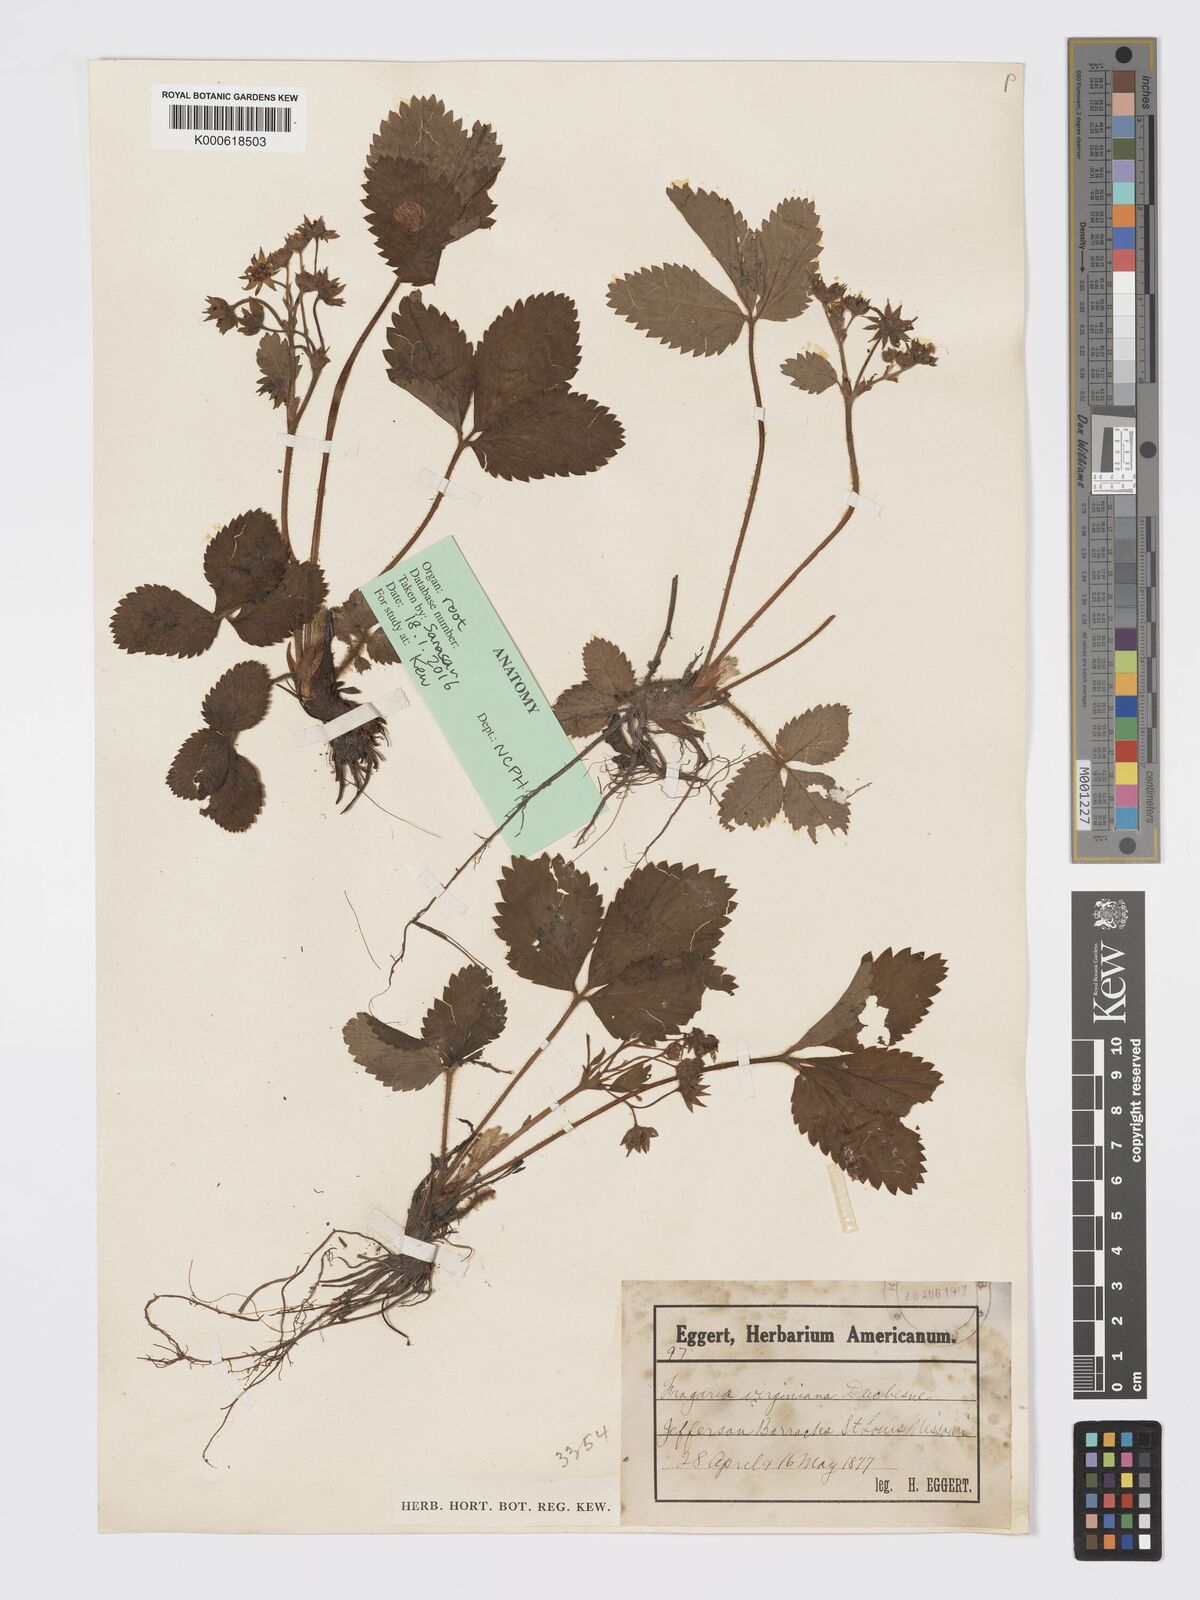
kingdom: Plantae
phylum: Tracheophyta
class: Magnoliopsida
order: Rosales
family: Rosaceae
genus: Fragaria
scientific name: Fragaria virginiana
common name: Thickleaved wild strawberry
